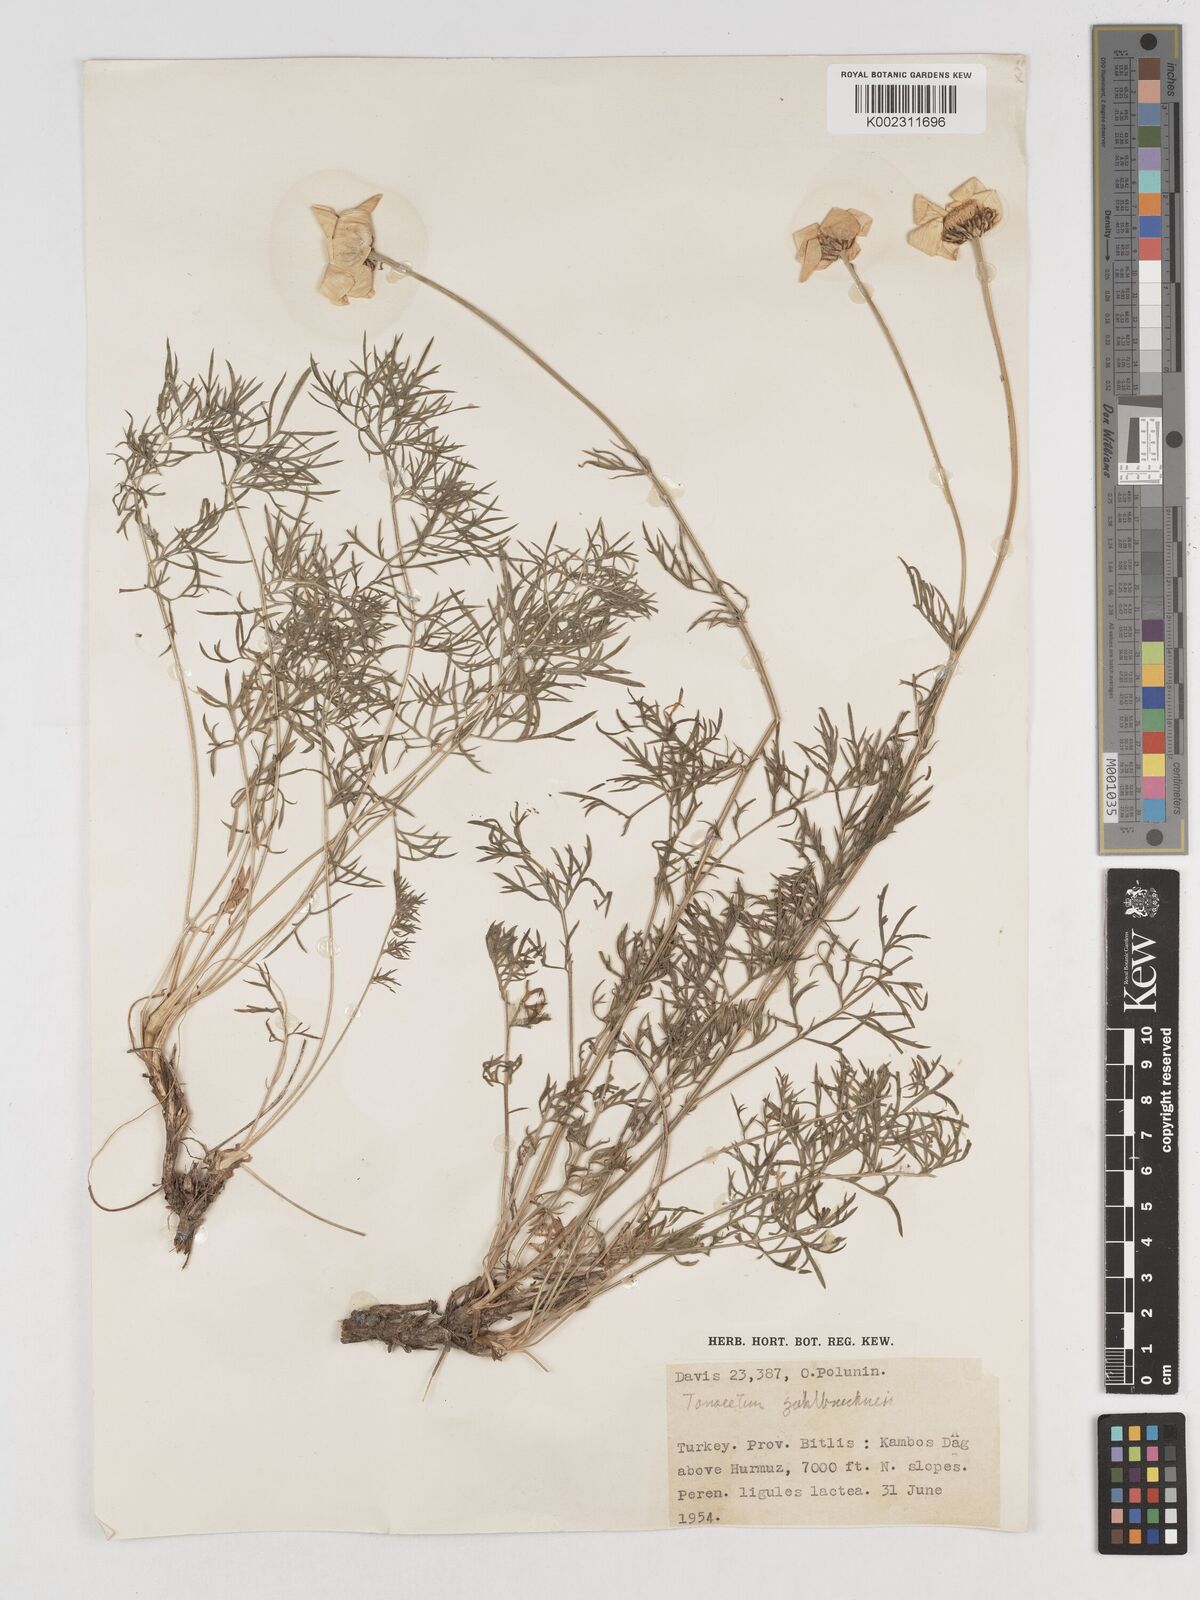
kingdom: Plantae
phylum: Tracheophyta
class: Magnoliopsida
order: Asterales
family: Asteraceae
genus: Tanacetum
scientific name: Tanacetum zahlbruckneri
